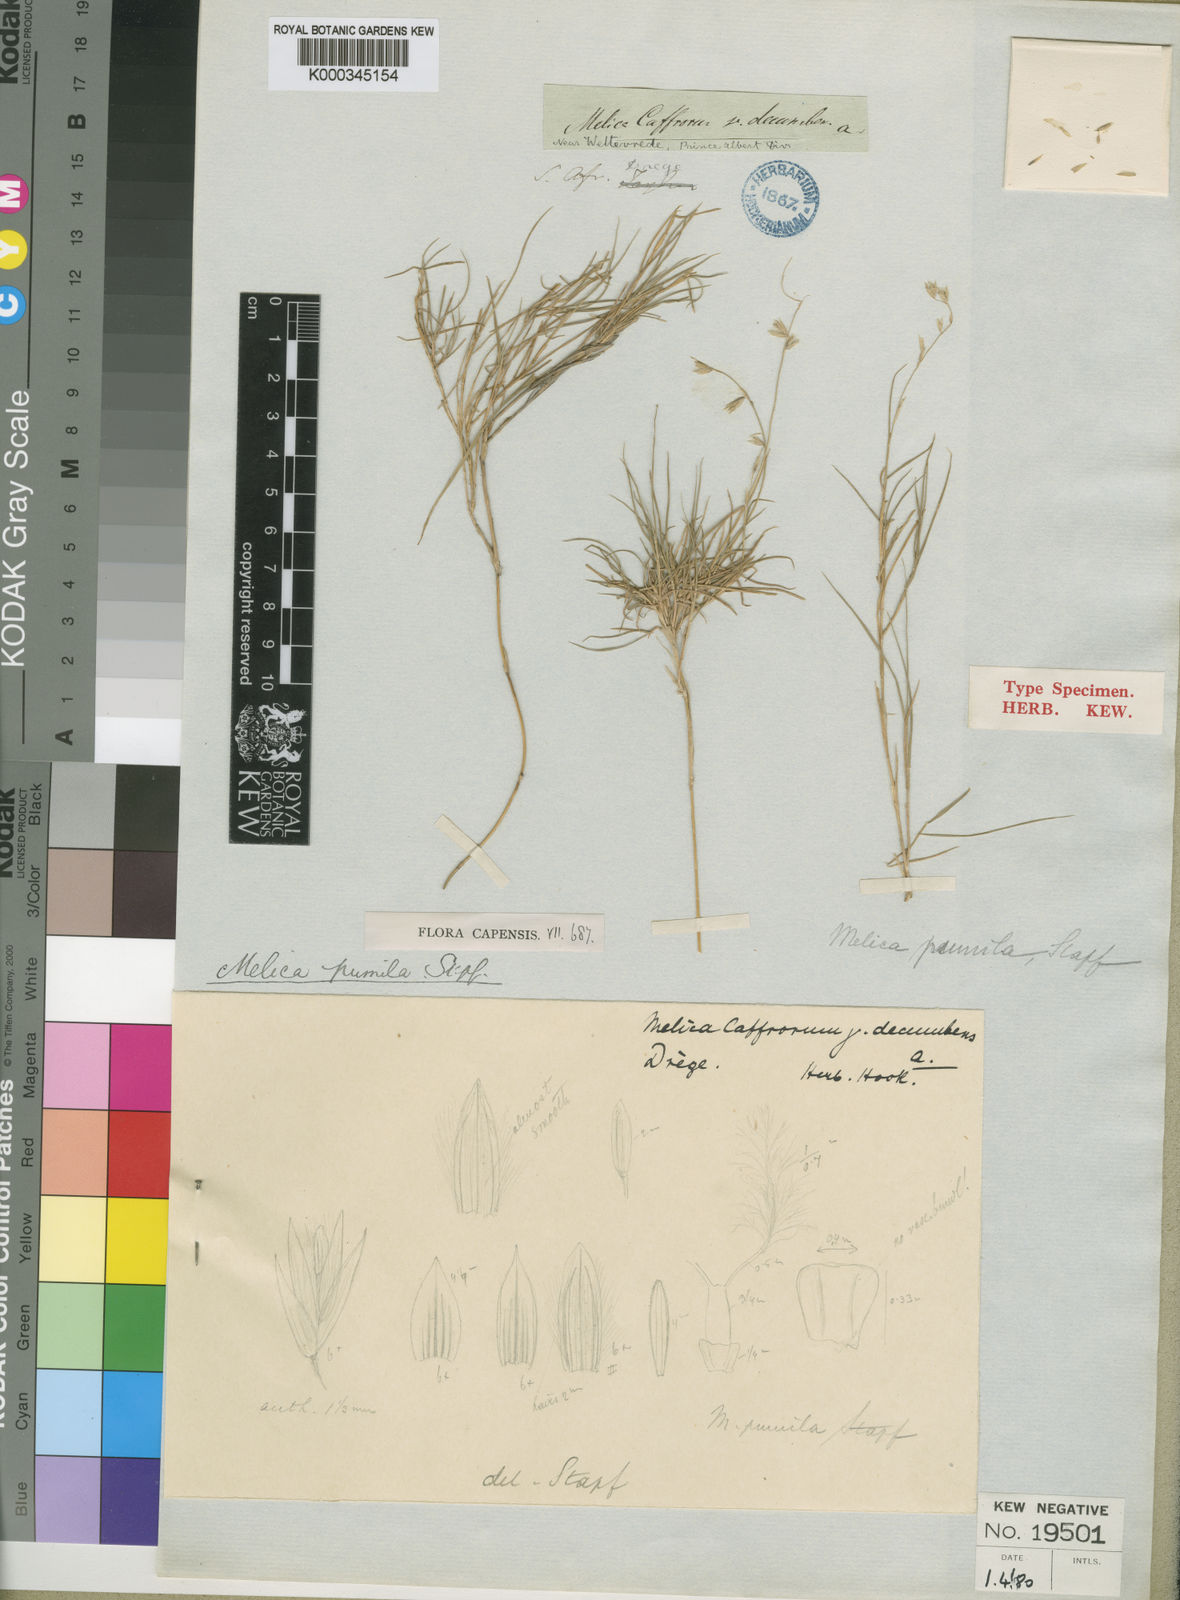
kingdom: Plantae
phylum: Tracheophyta
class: Liliopsida
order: Poales
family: Poaceae
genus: Melica
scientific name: Melica racemosa
